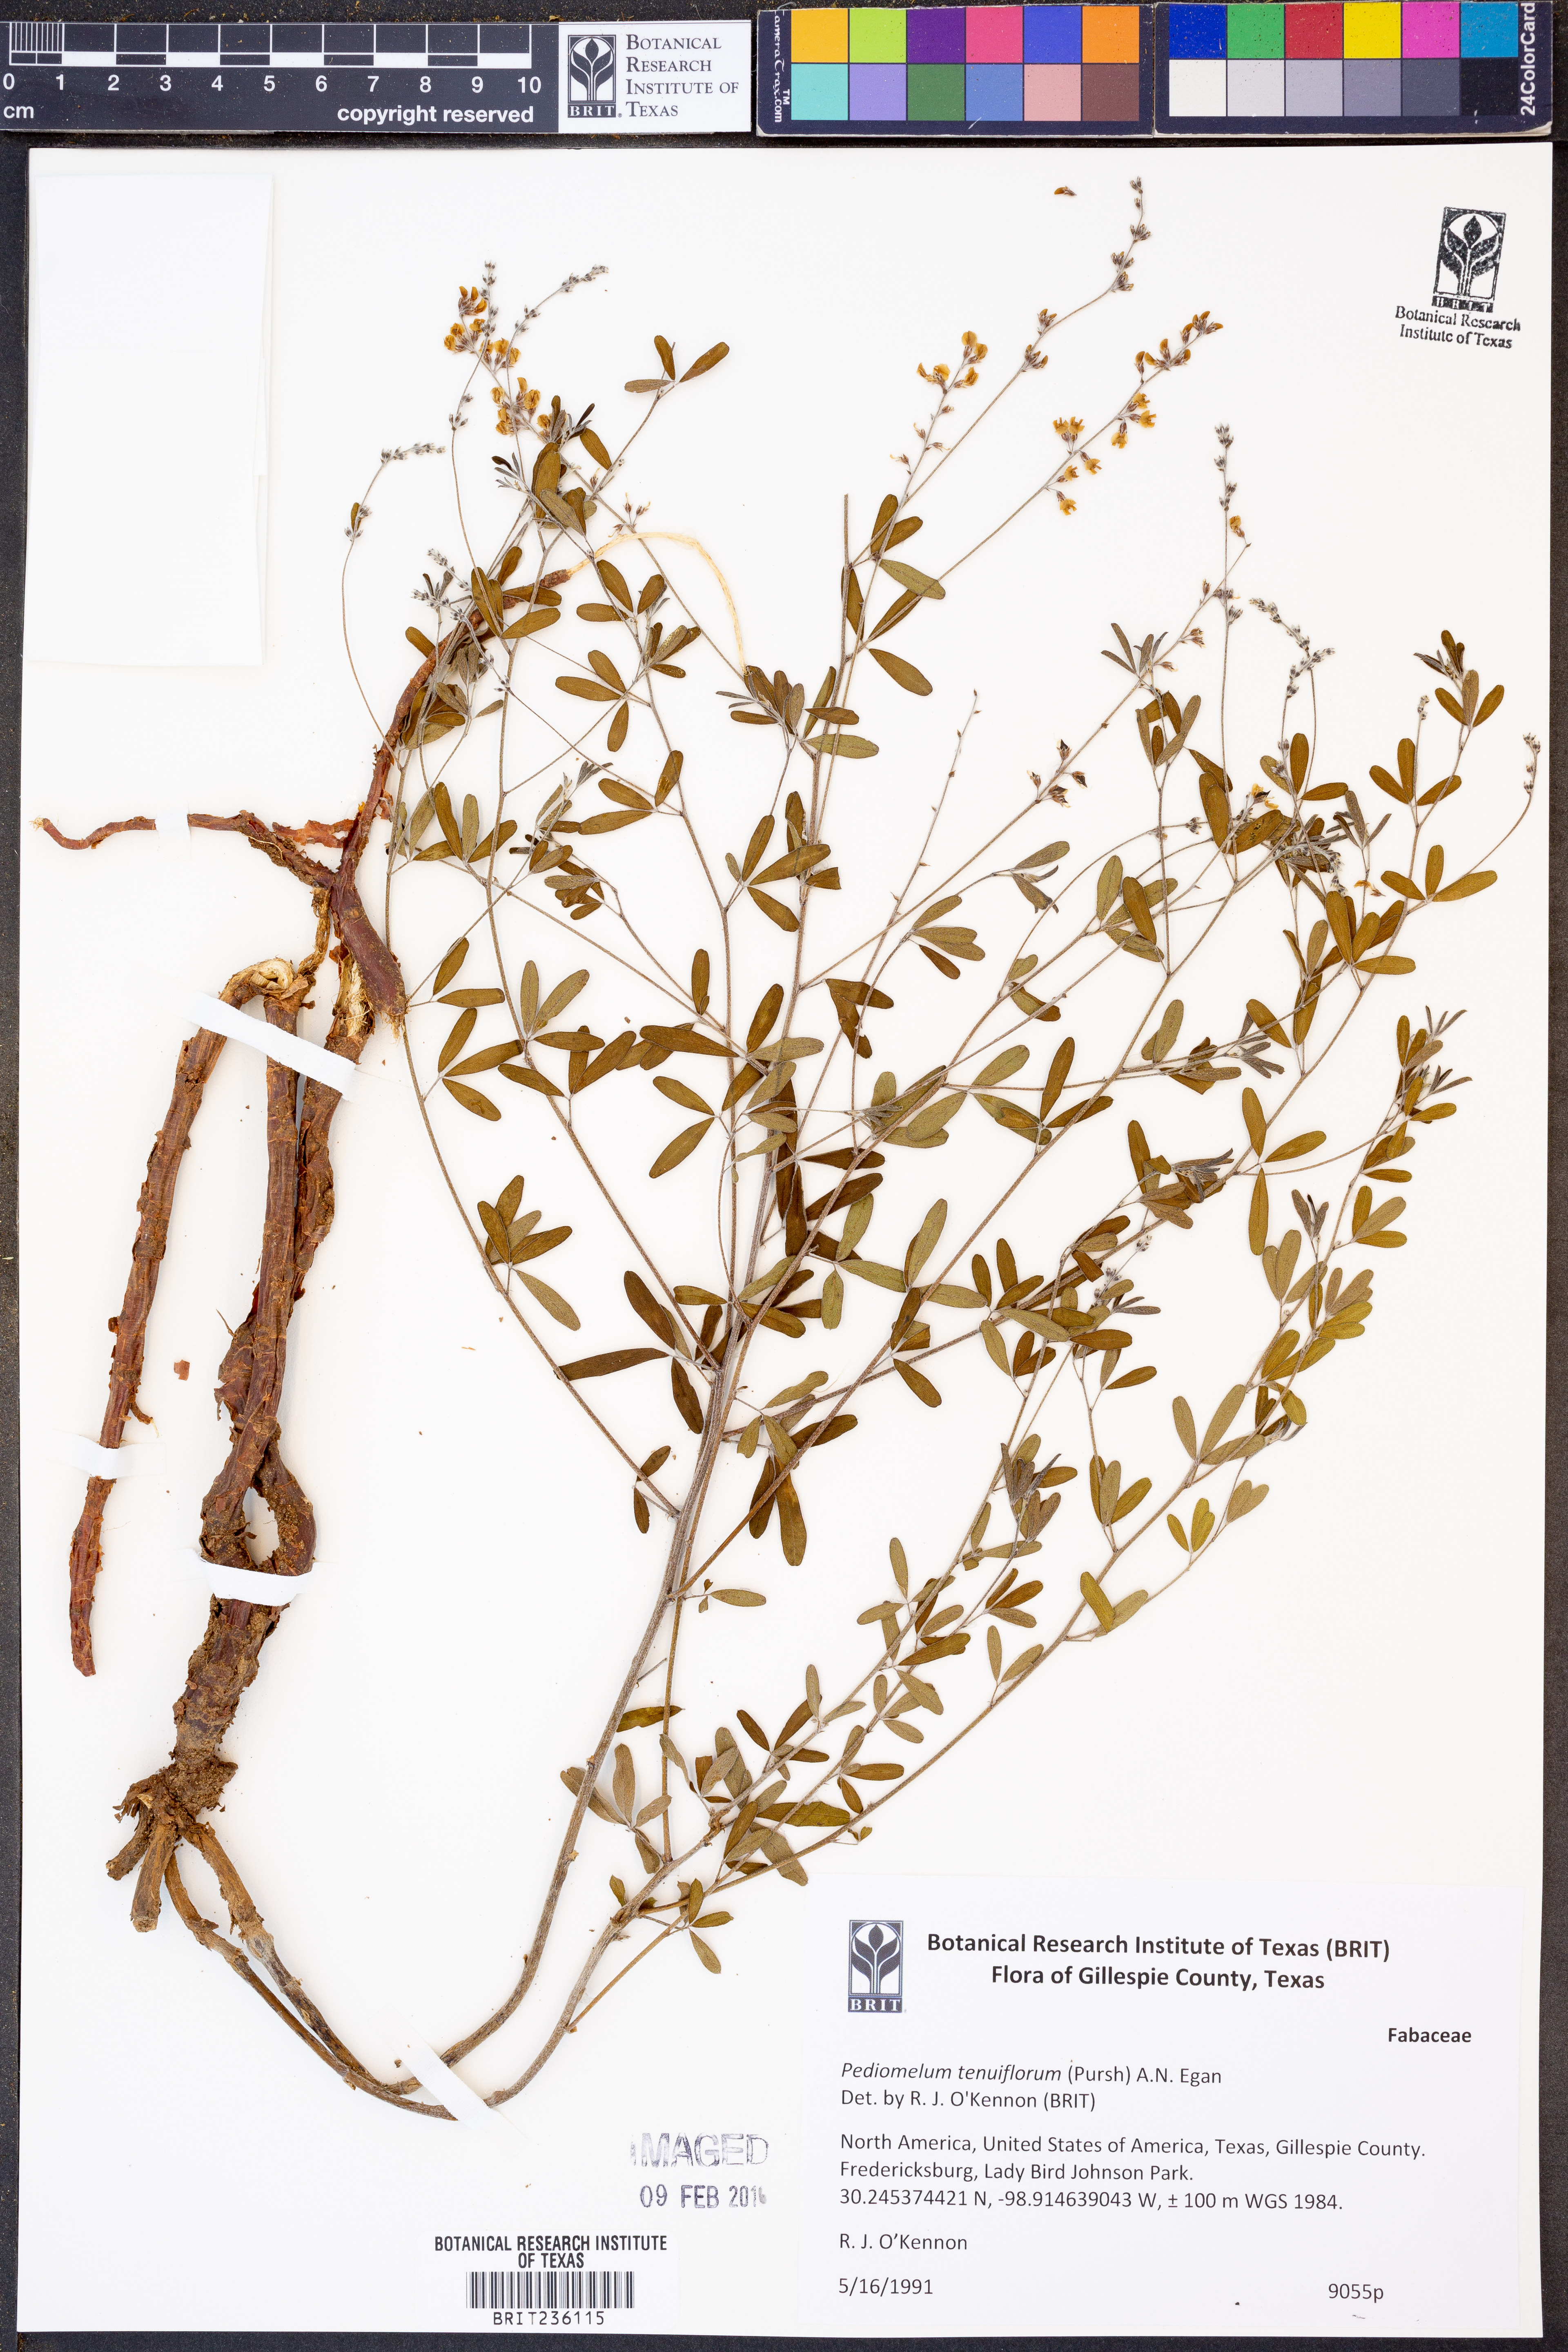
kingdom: Plantae
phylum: Tracheophyta
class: Magnoliopsida
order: Fabales
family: Fabaceae
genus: Pediomelum
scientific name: Pediomelum tenuiflorum
